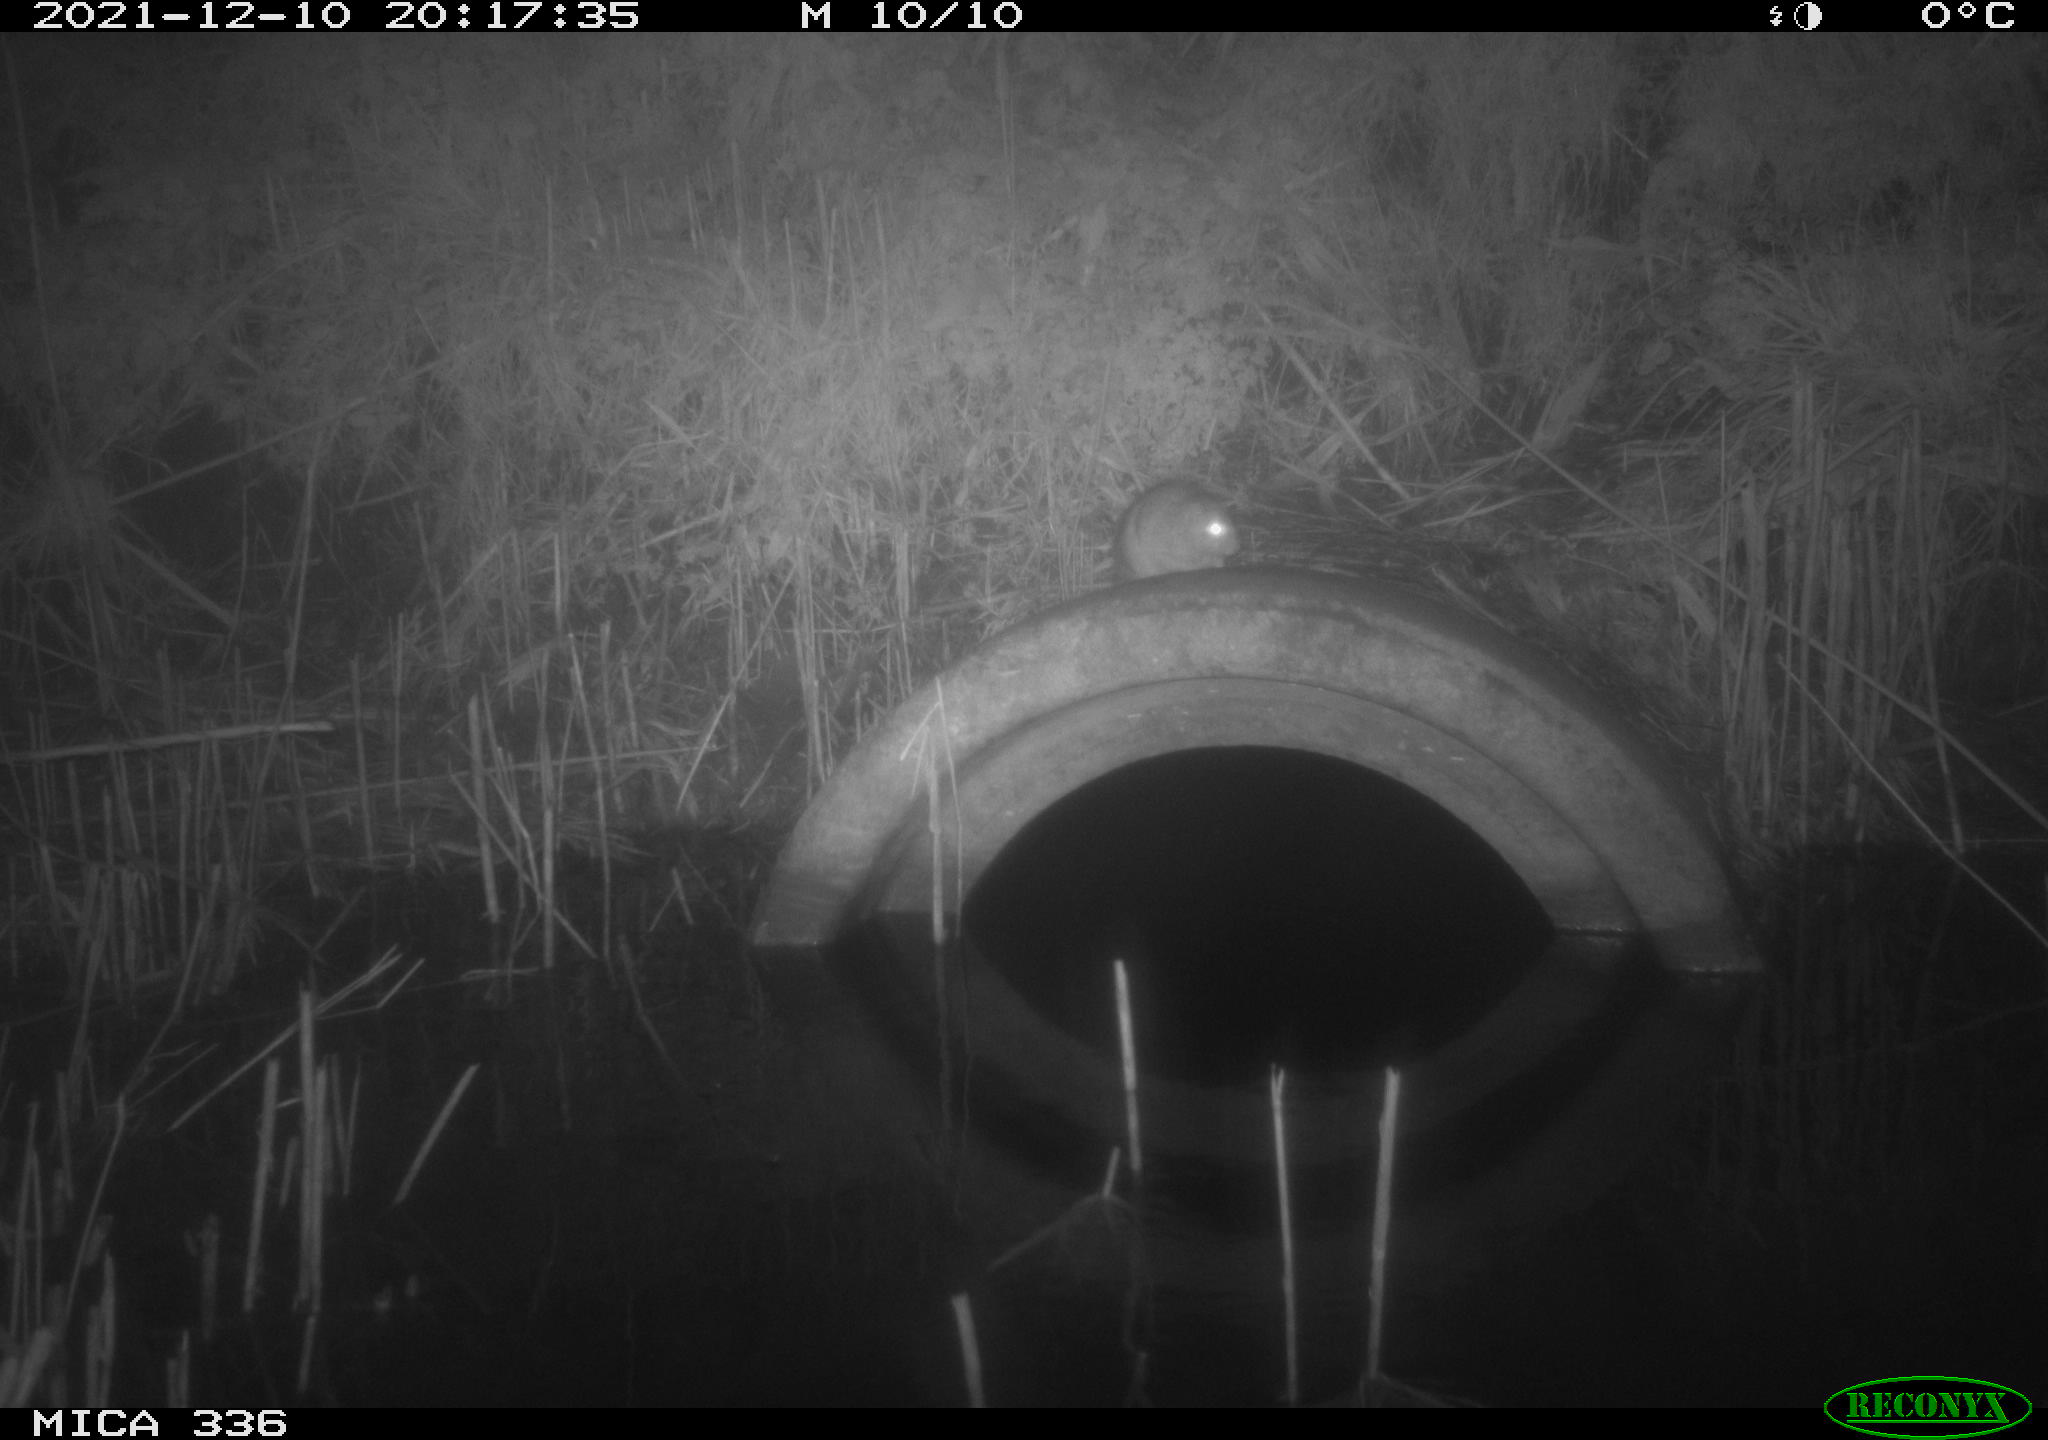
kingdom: Animalia
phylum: Chordata
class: Mammalia
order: Rodentia
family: Muridae
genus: Rattus
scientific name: Rattus norvegicus
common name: Brown rat
